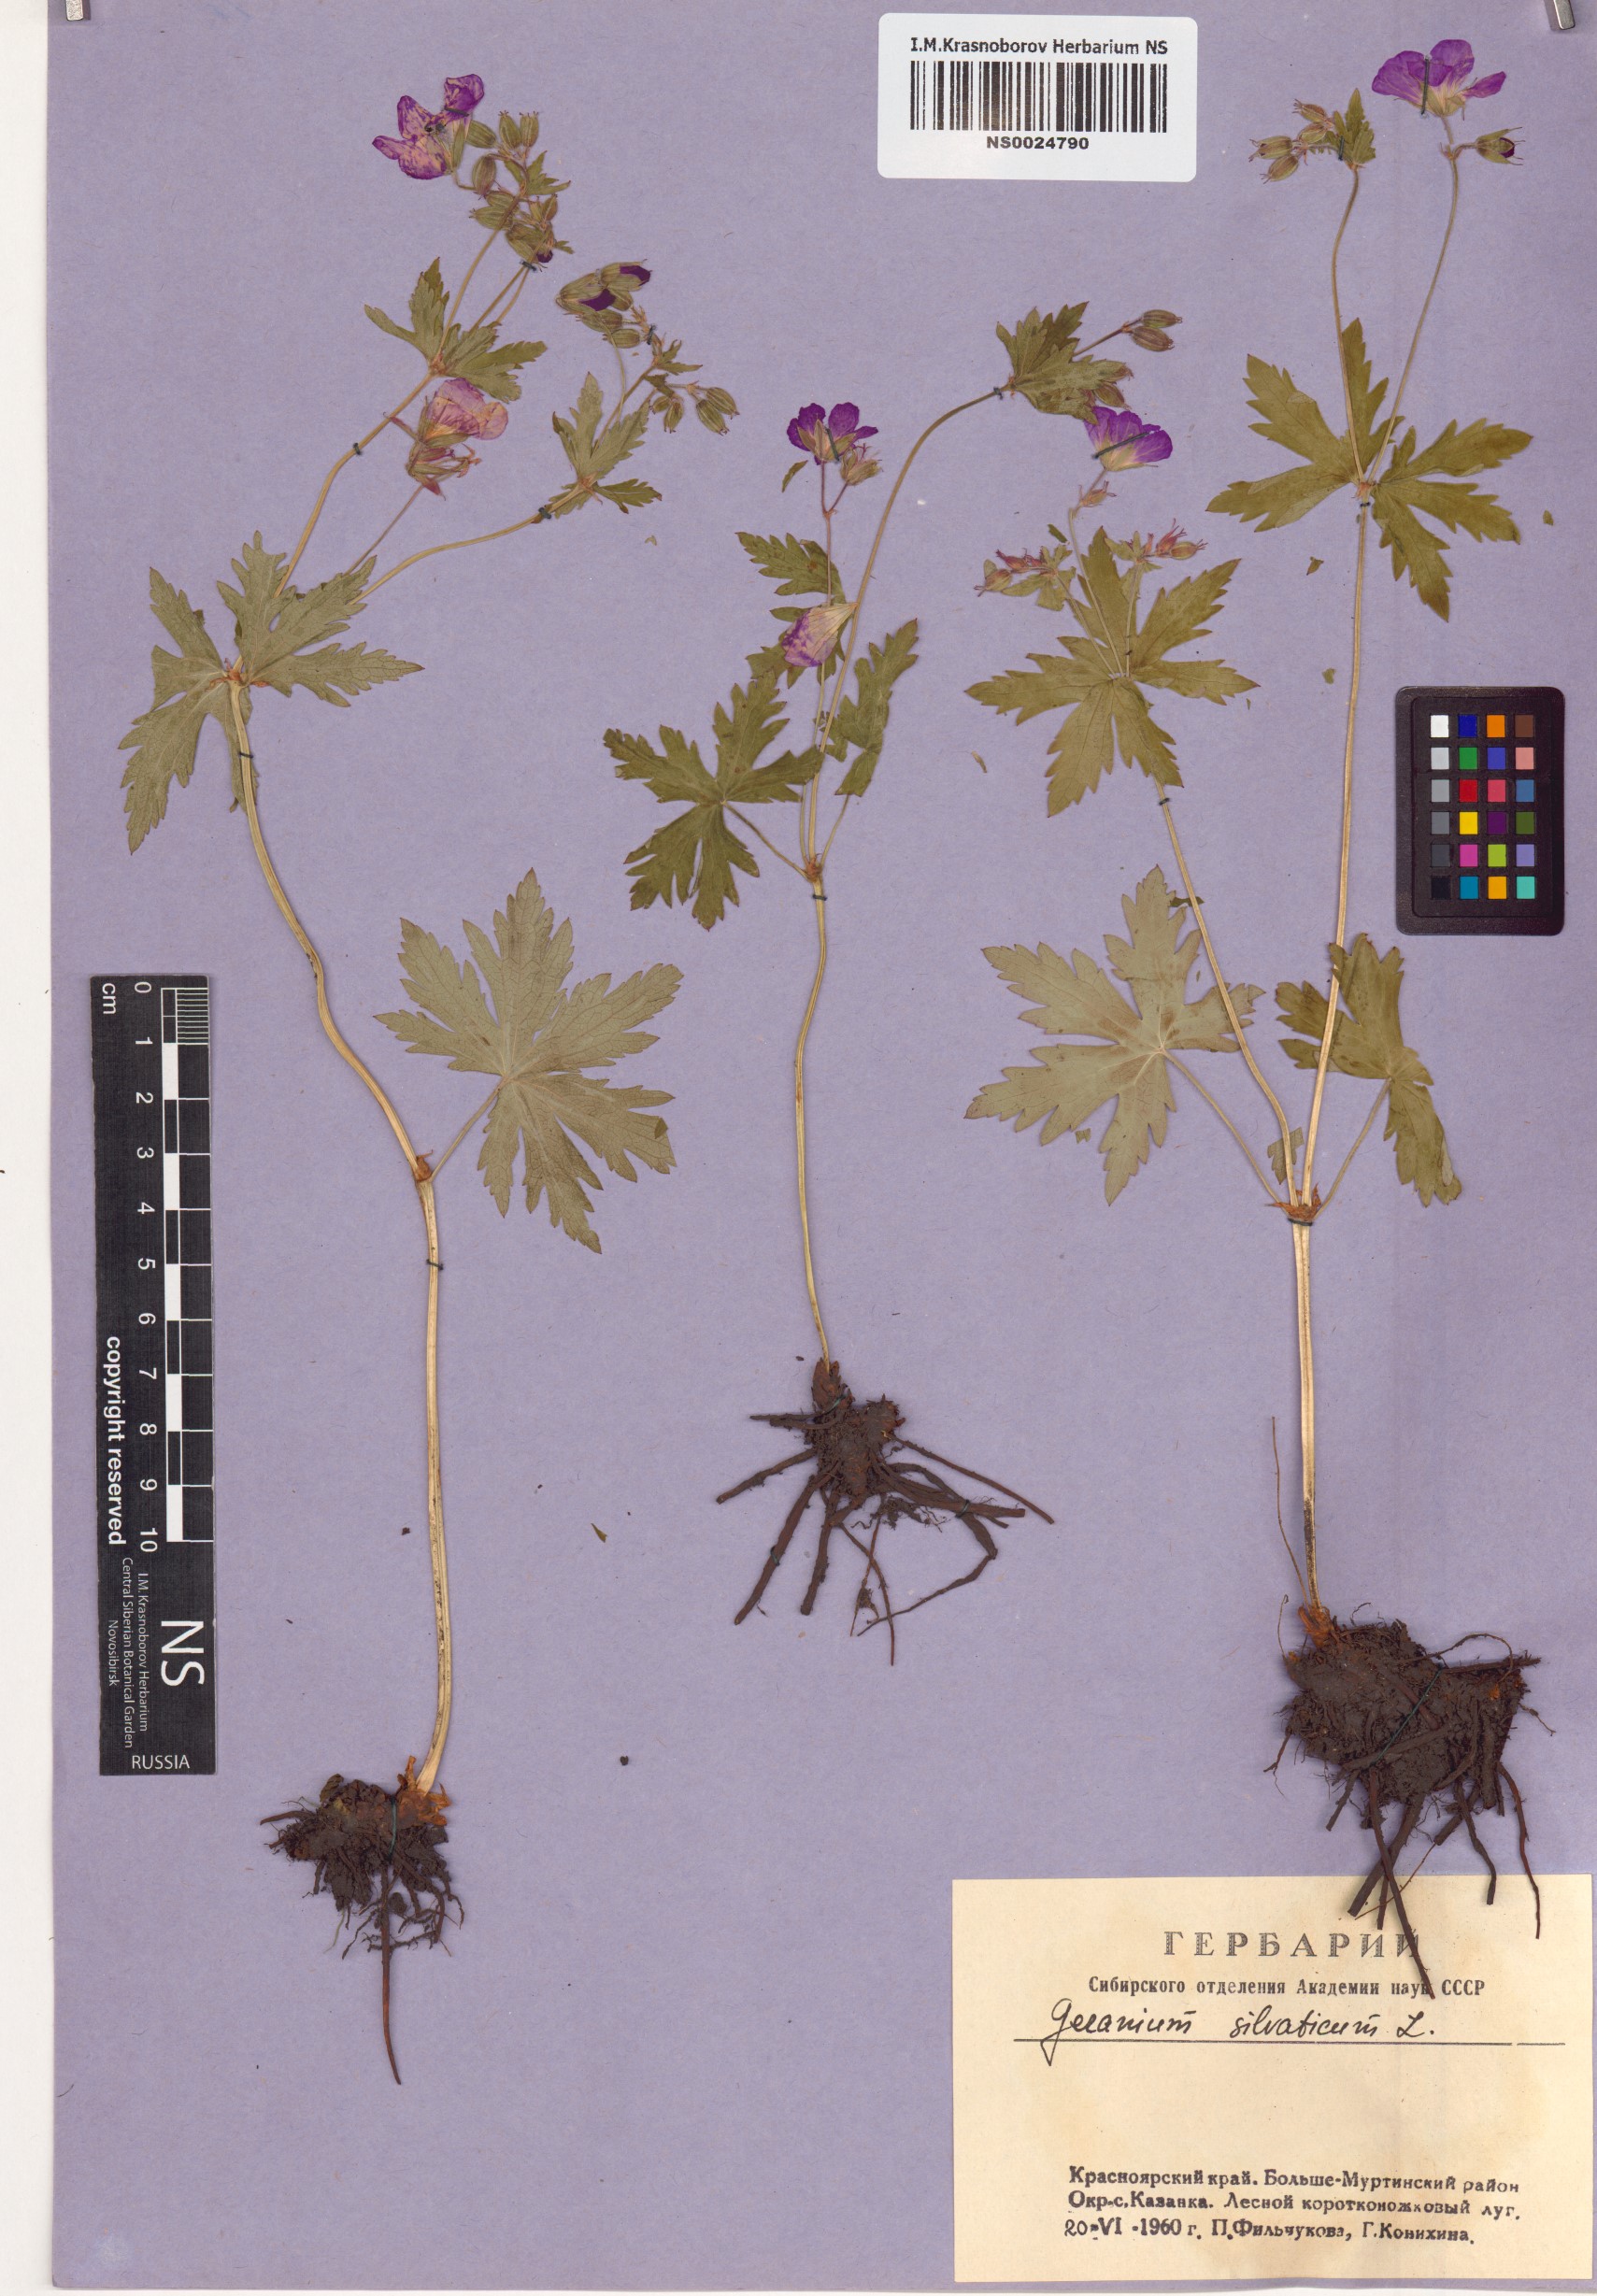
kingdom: Plantae
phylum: Tracheophyta
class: Magnoliopsida
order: Geraniales
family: Geraniaceae
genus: Geranium
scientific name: Geranium sylvaticum
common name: Wood crane's-bill
